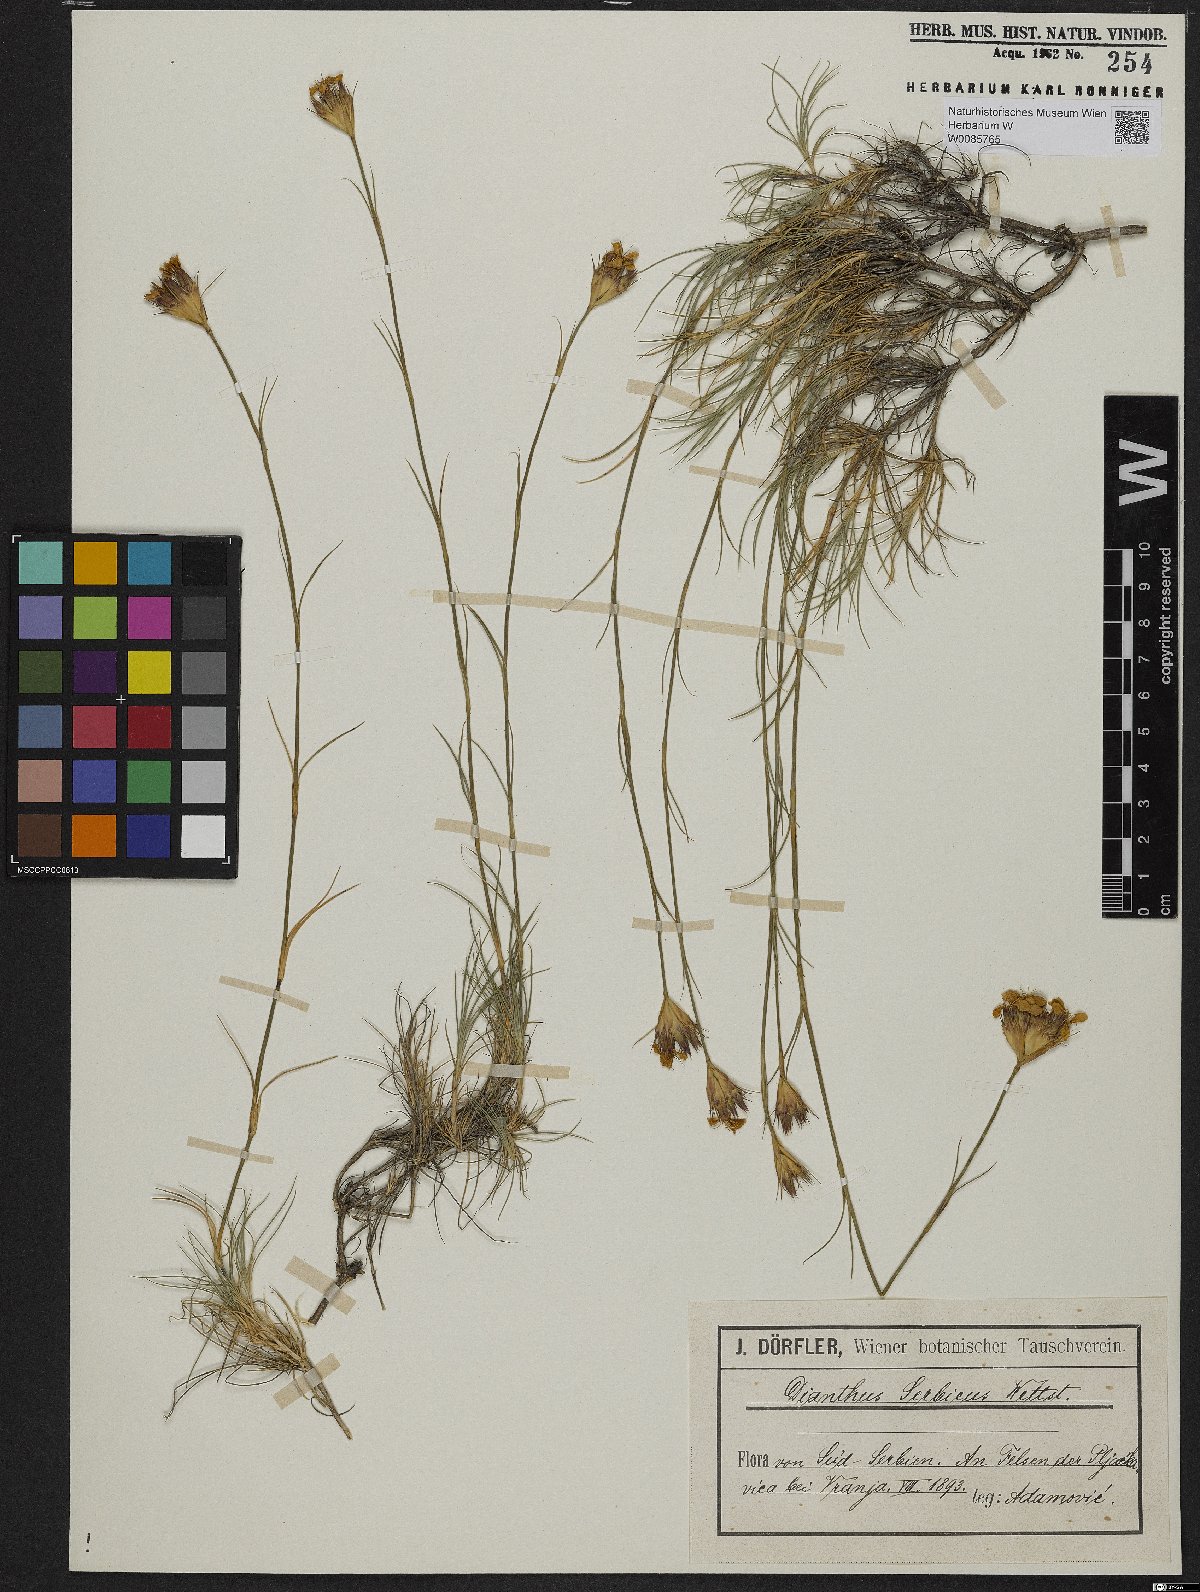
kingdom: Plantae
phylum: Tracheophyta
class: Magnoliopsida
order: Caryophyllales
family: Caryophyllaceae
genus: Dianthus
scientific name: Dianthus pinifolius
